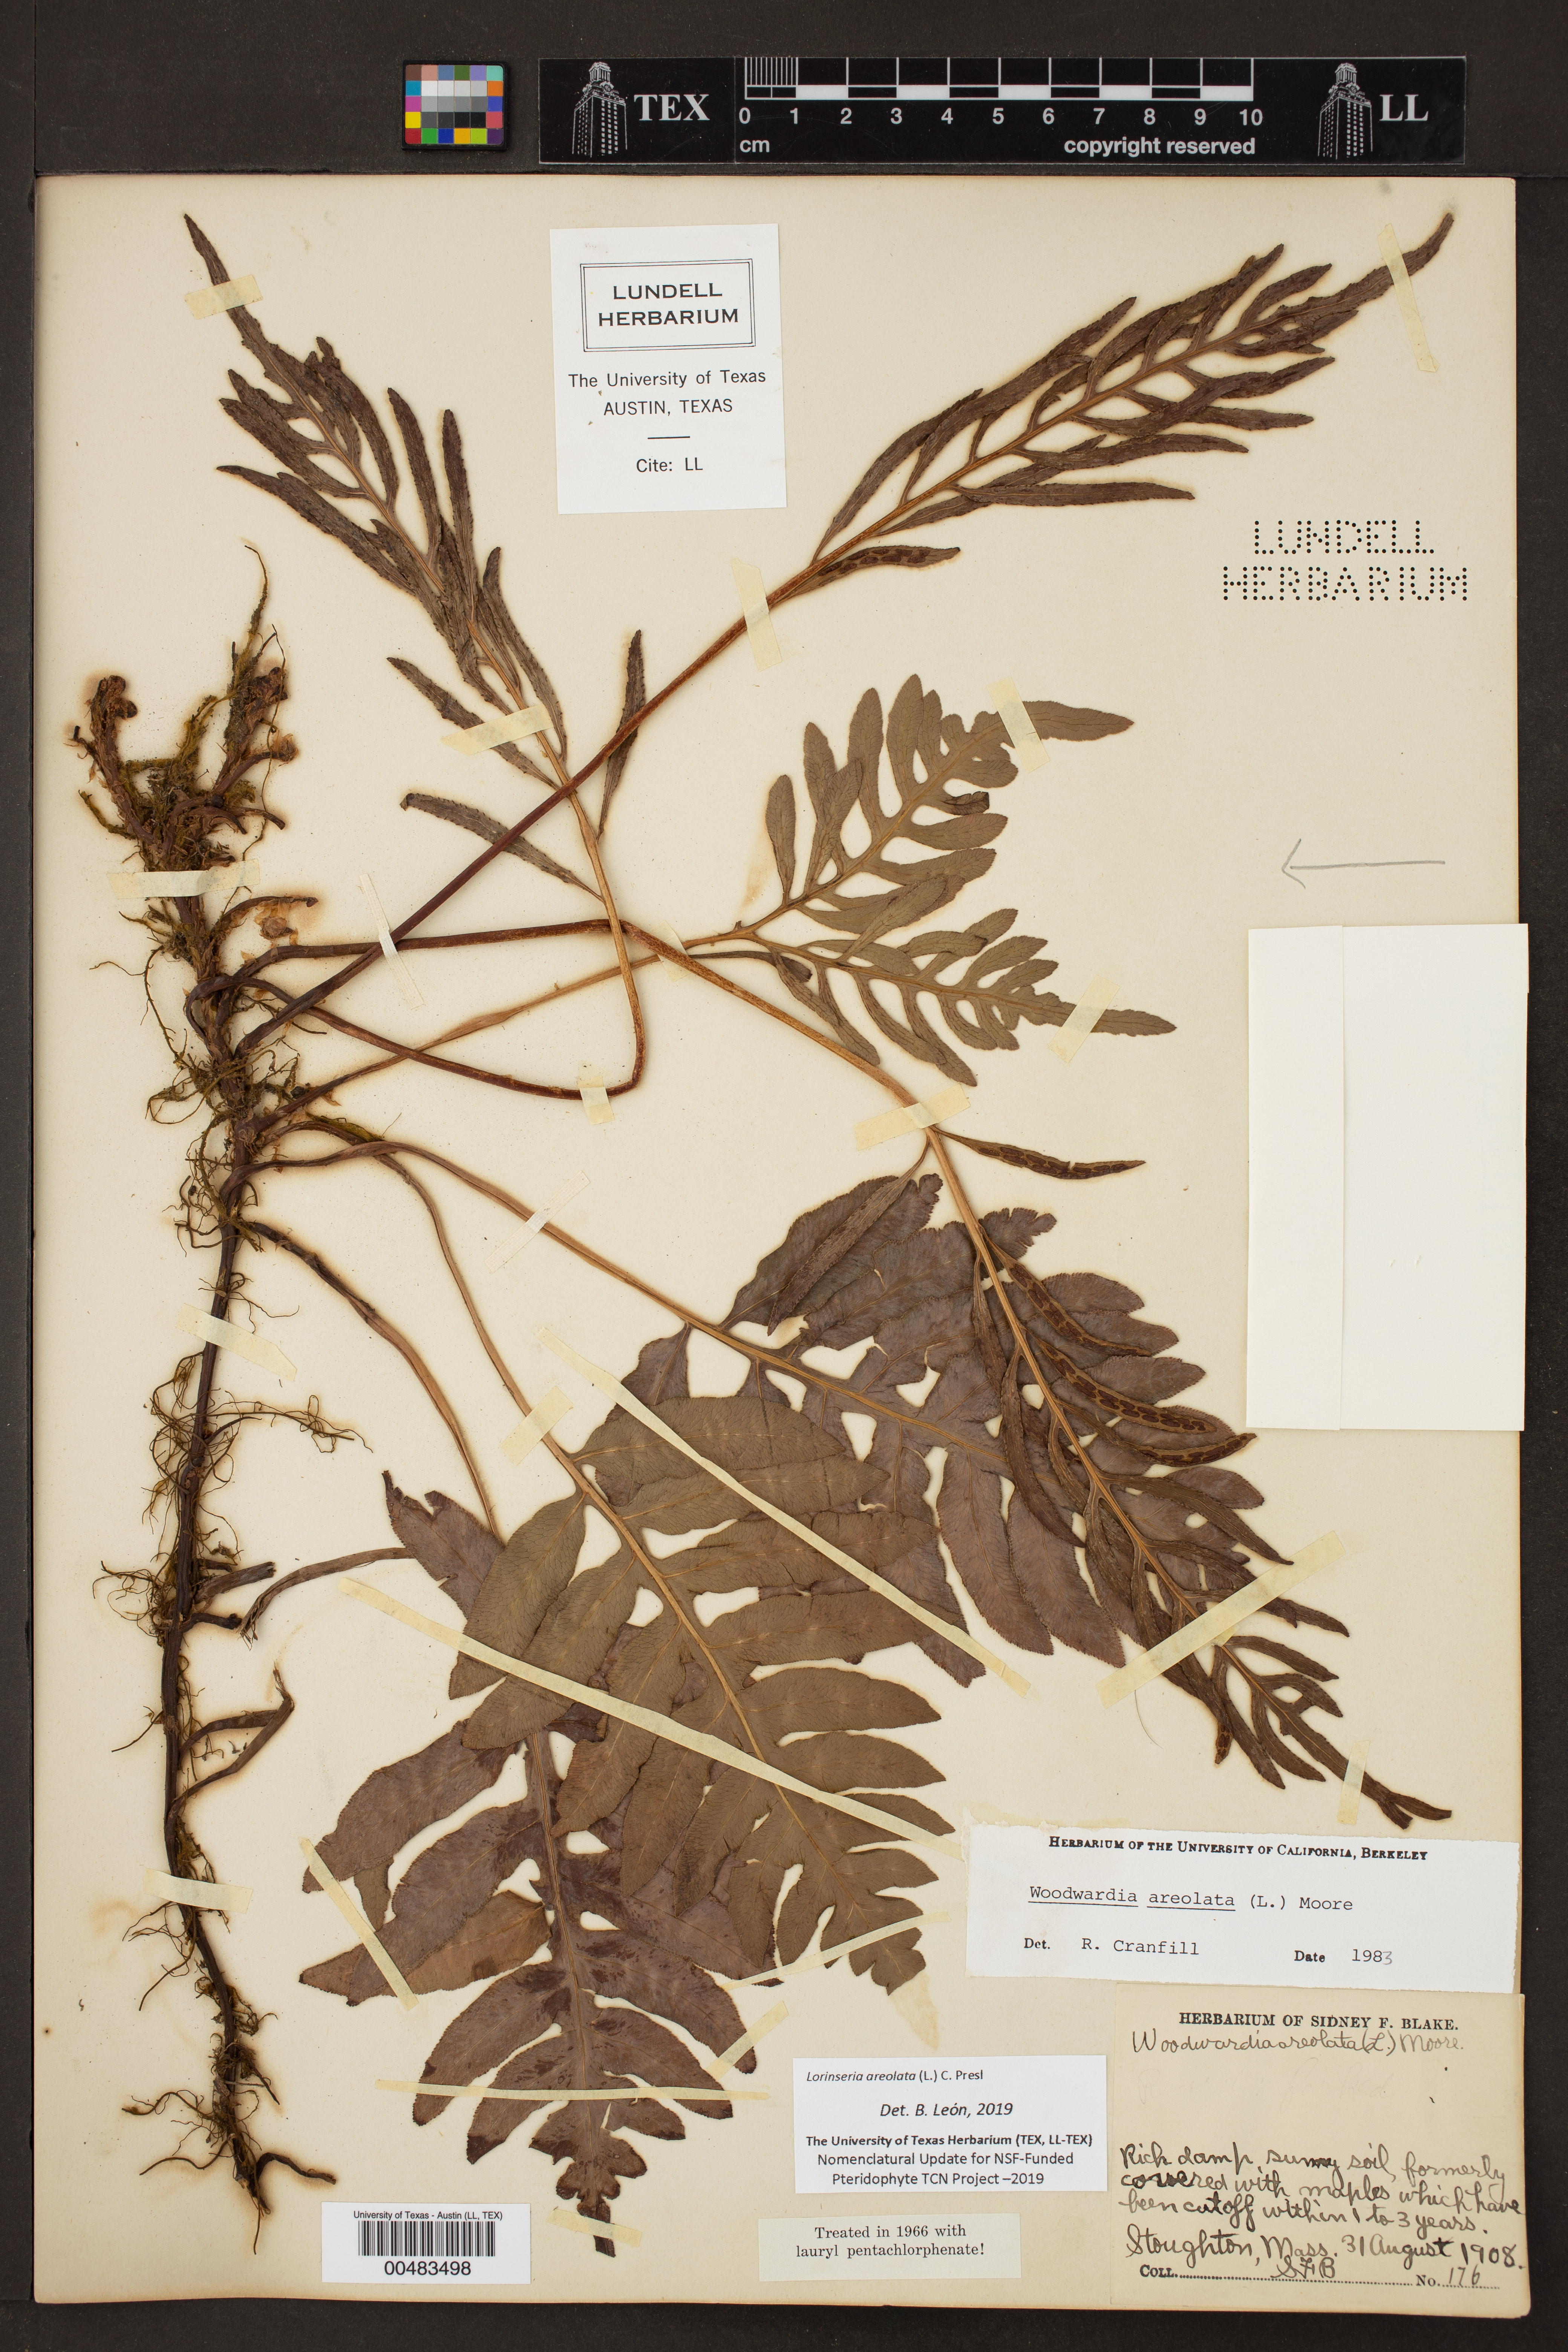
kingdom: Plantae
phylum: Tracheophyta
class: Polypodiopsida
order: Polypodiales
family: Blechnaceae
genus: Lorinseria
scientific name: Lorinseria areolata
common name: Dwarf chain fern
